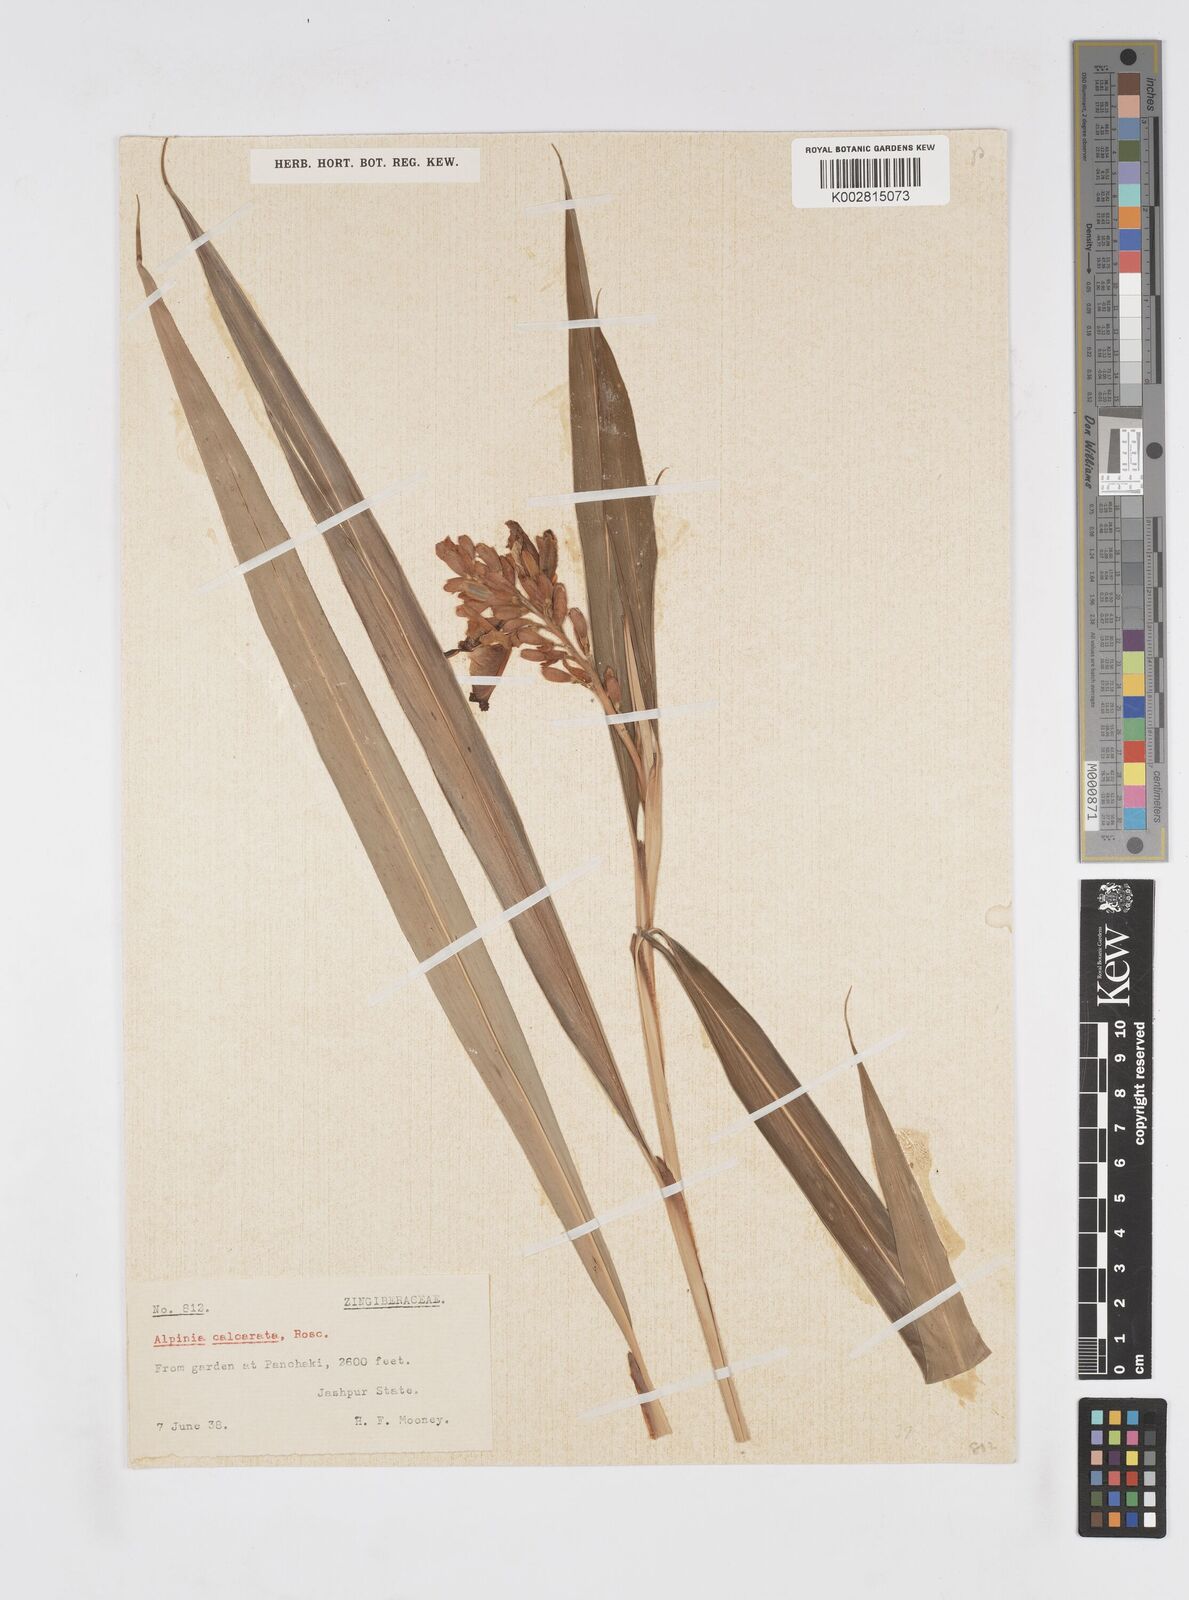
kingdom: Plantae
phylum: Tracheophyta
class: Liliopsida
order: Zingiberales
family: Zingiberaceae
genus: Alpinia
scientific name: Alpinia calcarata
